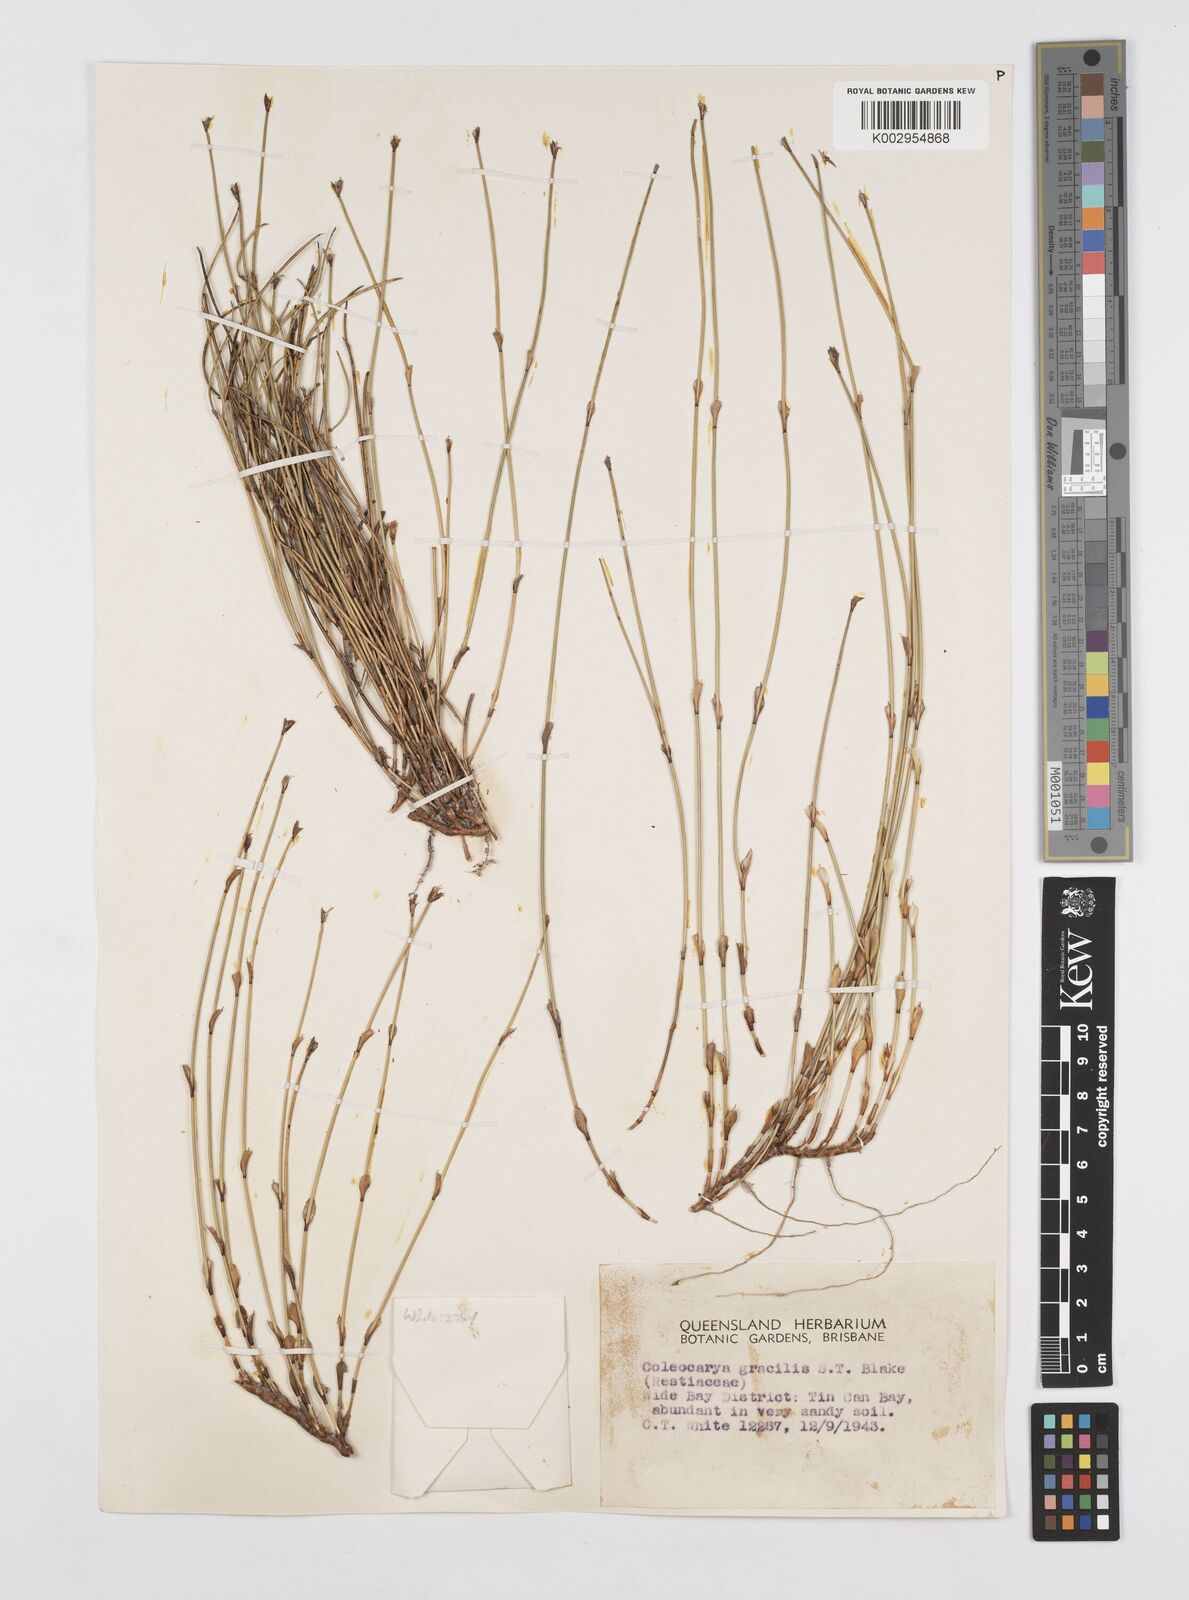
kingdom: Plantae
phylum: Tracheophyta
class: Liliopsida
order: Poales
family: Restionaceae
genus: Coleocarya
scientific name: Coleocarya gracilis
